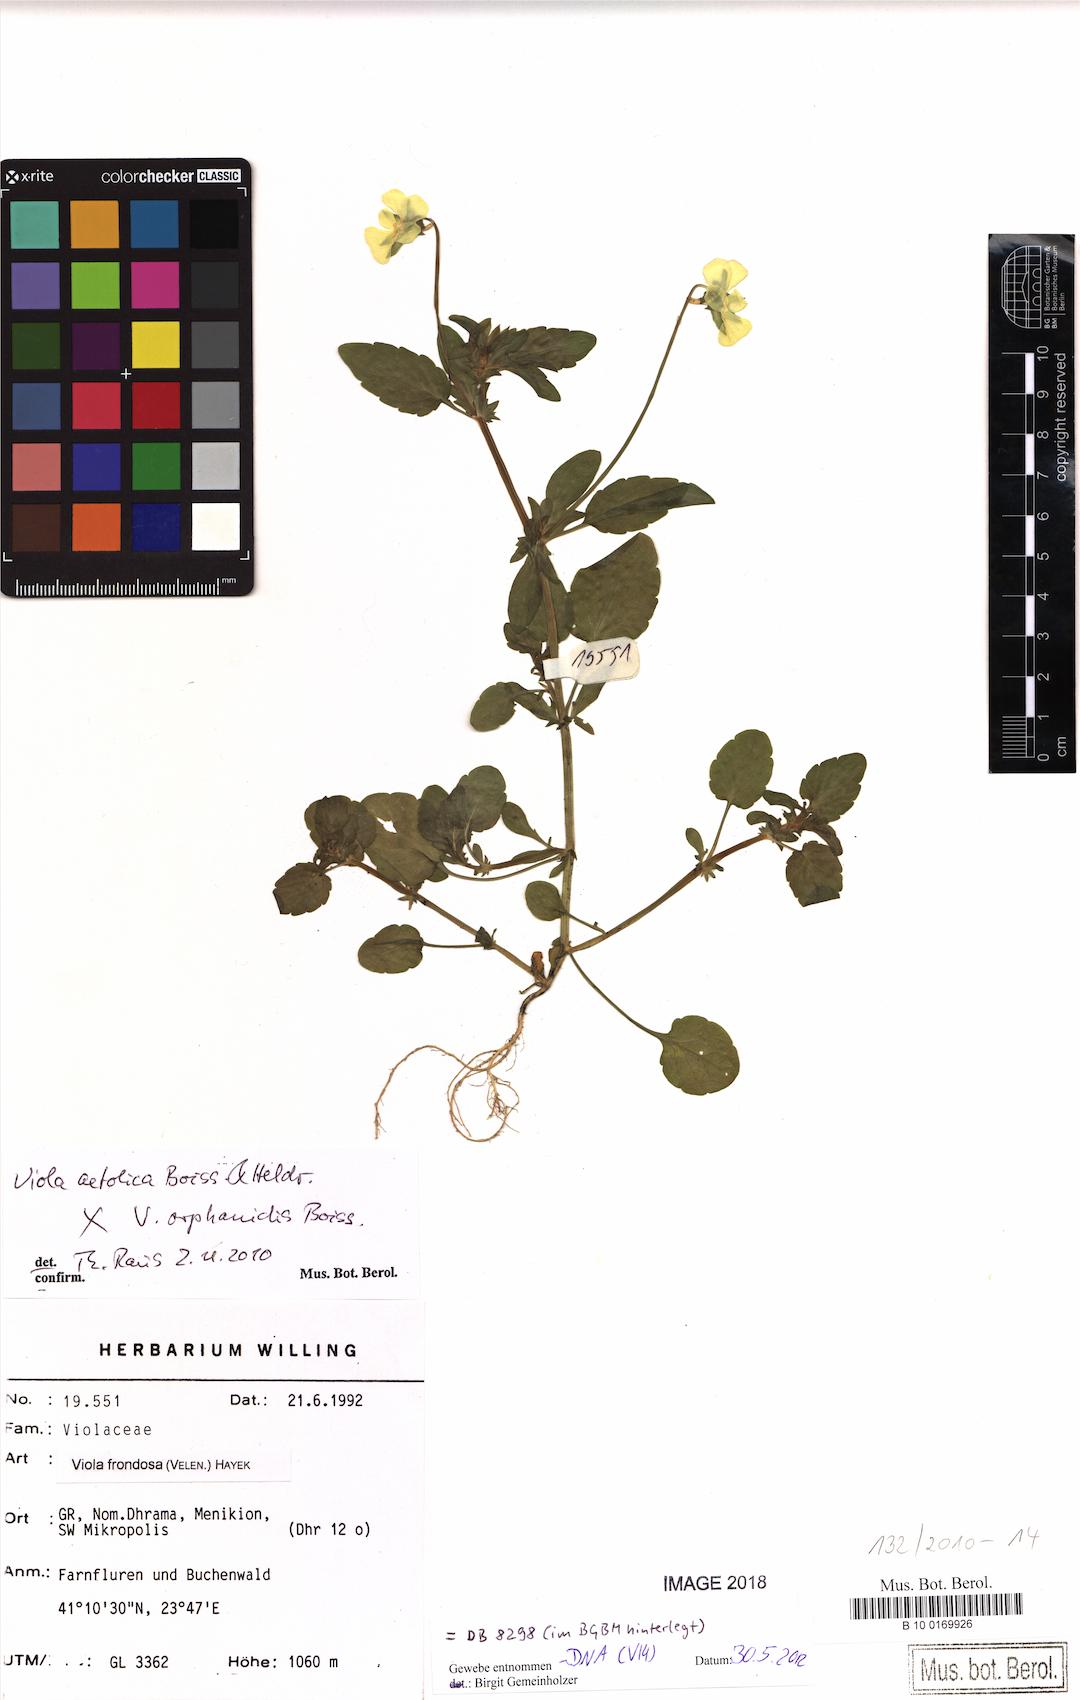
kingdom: Plantae
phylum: Tracheophyta
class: Magnoliopsida
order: Malpighiales
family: Violaceae
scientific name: Violaceae
